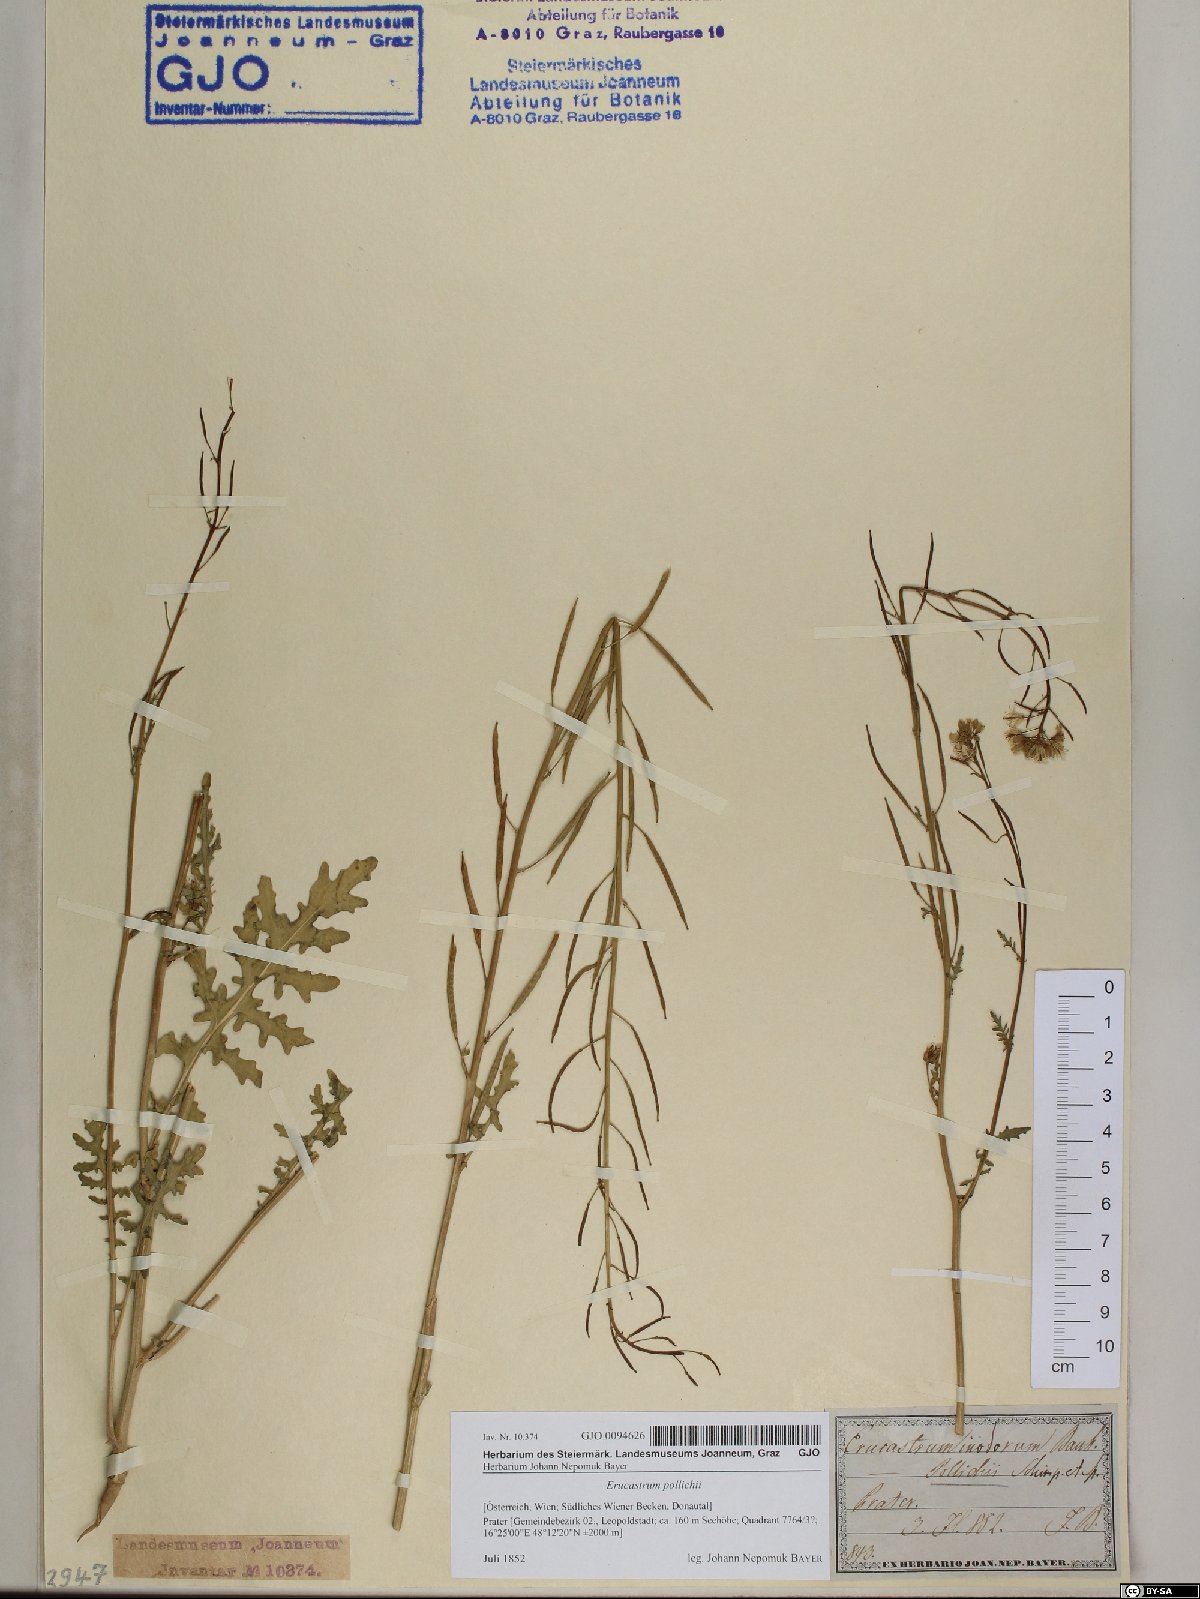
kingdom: Plantae
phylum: Tracheophyta
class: Magnoliopsida
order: Brassicales
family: Brassicaceae
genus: Erucastrum
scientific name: Erucastrum gallicum
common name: Hairy rocket
